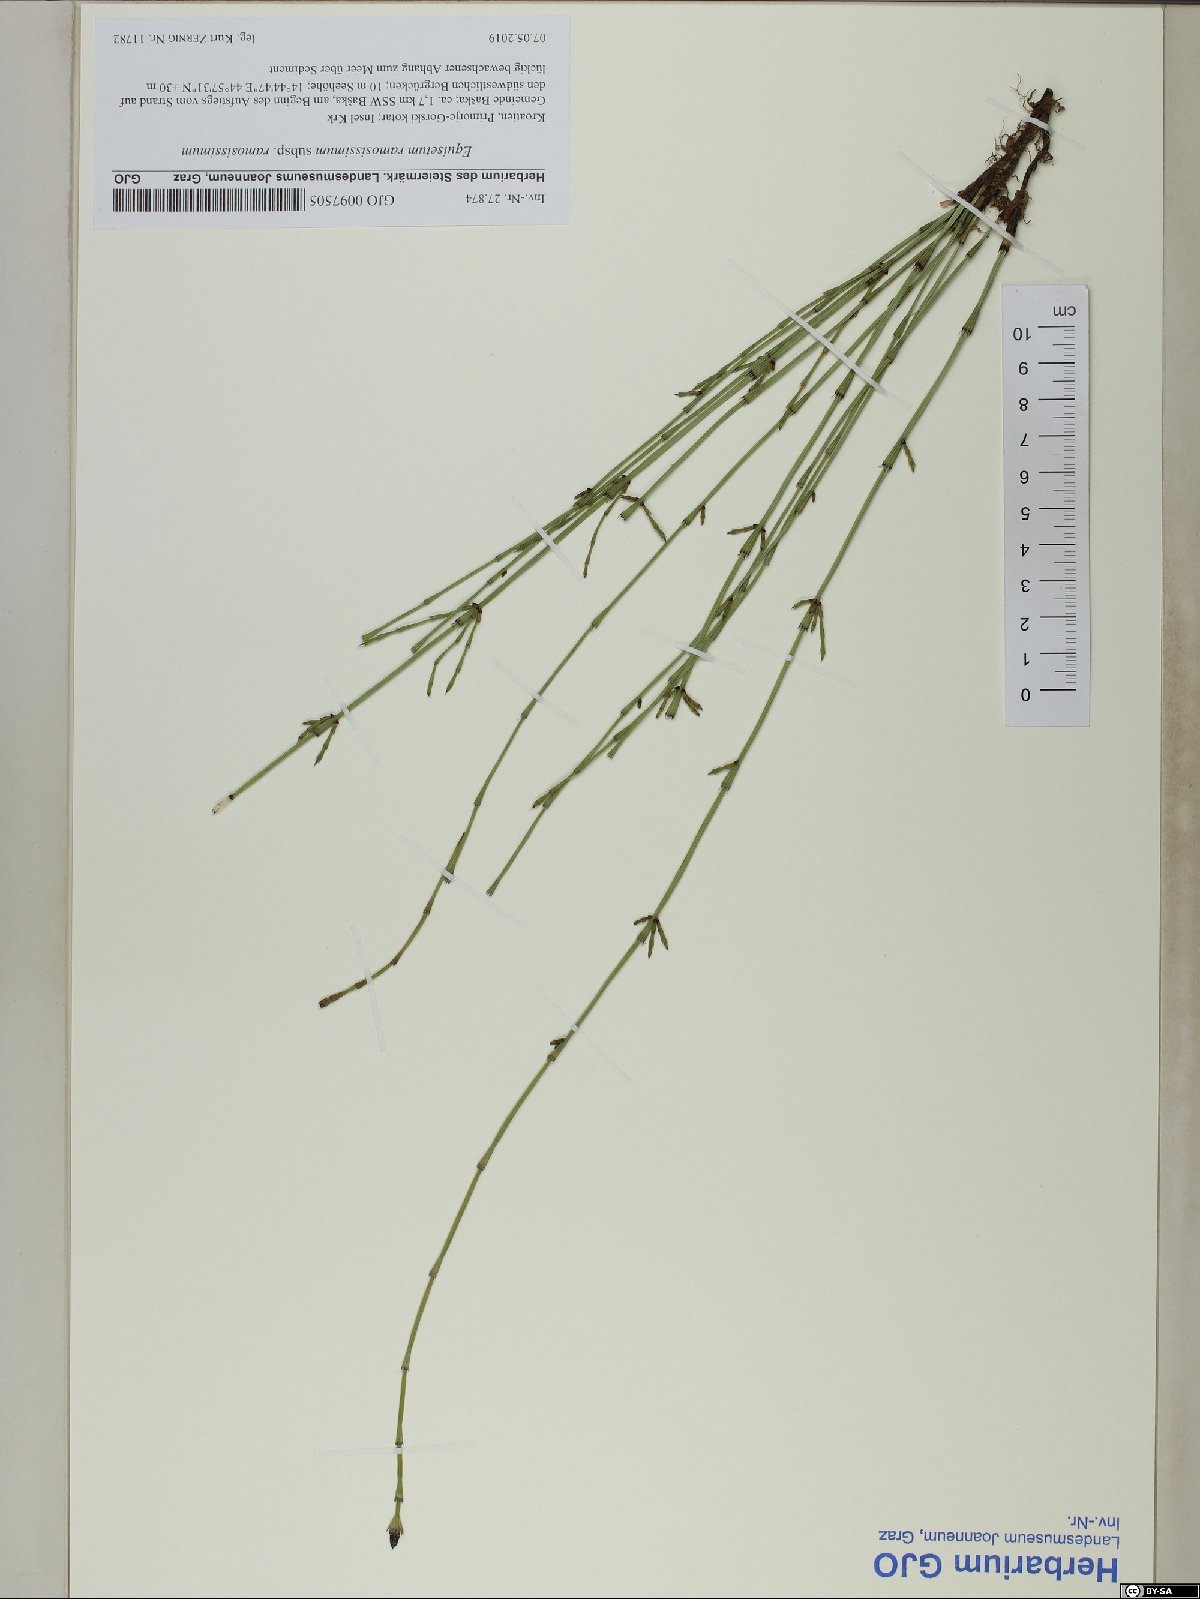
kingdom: Plantae
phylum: Tracheophyta
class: Polypodiopsida
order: Equisetales
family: Equisetaceae
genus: Equisetum
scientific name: Equisetum ramosissimum
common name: Branched horsetail
